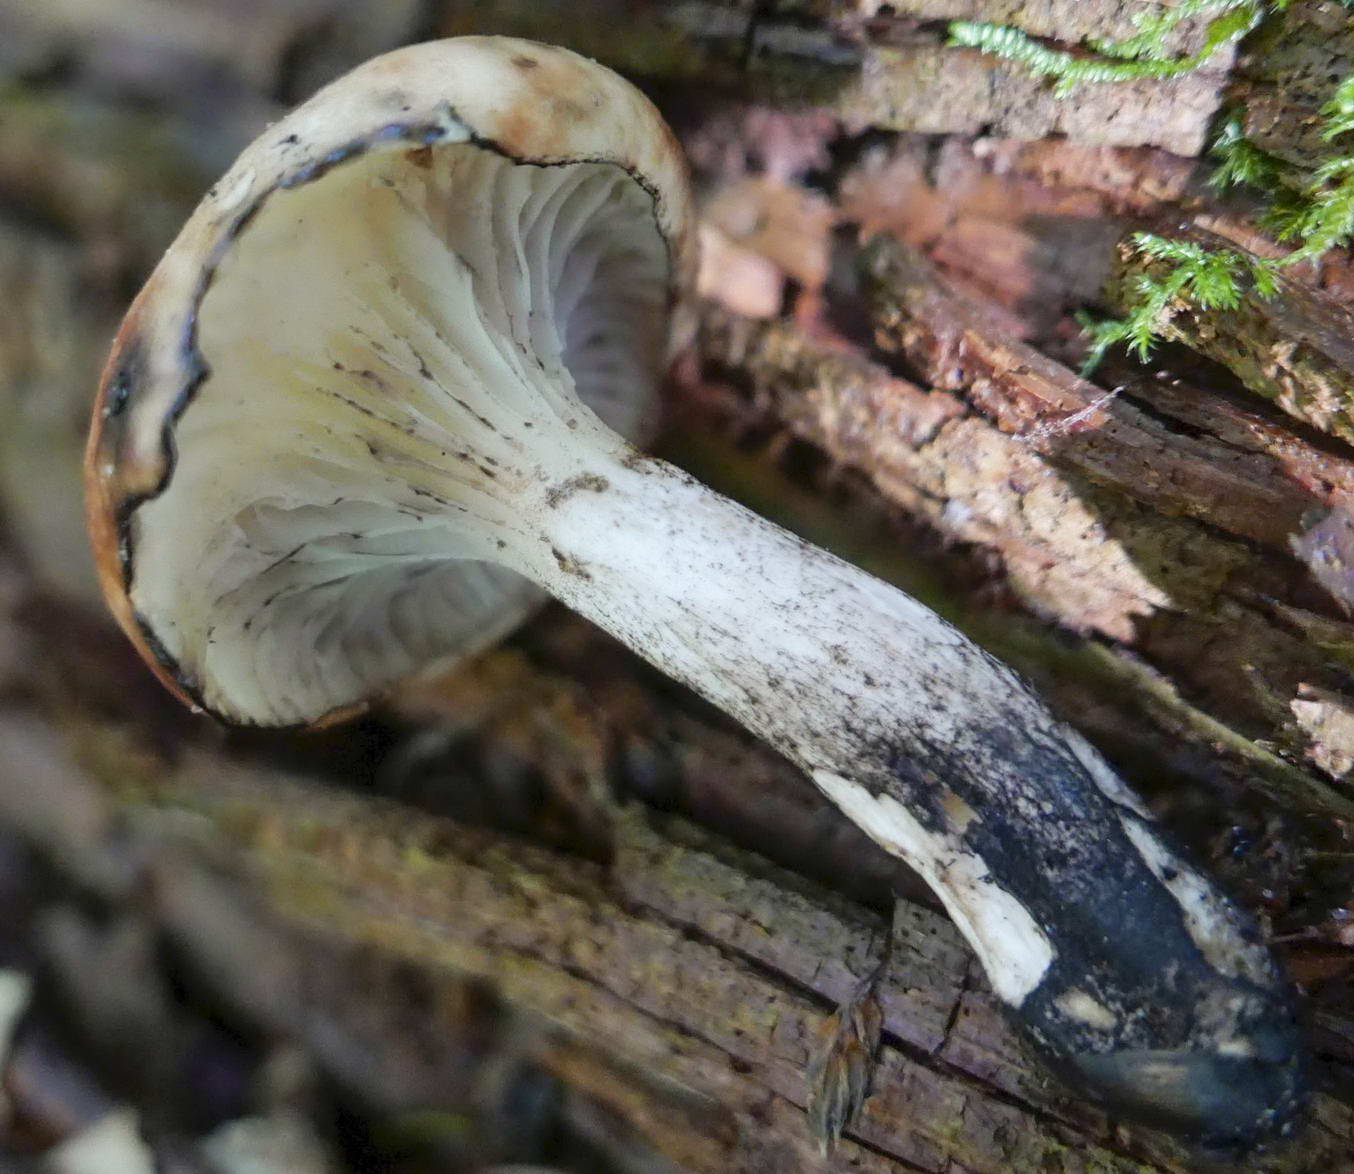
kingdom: Fungi
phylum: Basidiomycota
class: Agaricomycetes
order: Boletales
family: Gomphidiaceae
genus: Gomphidius
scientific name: Gomphidius maculatus
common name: rødmende slimslør
